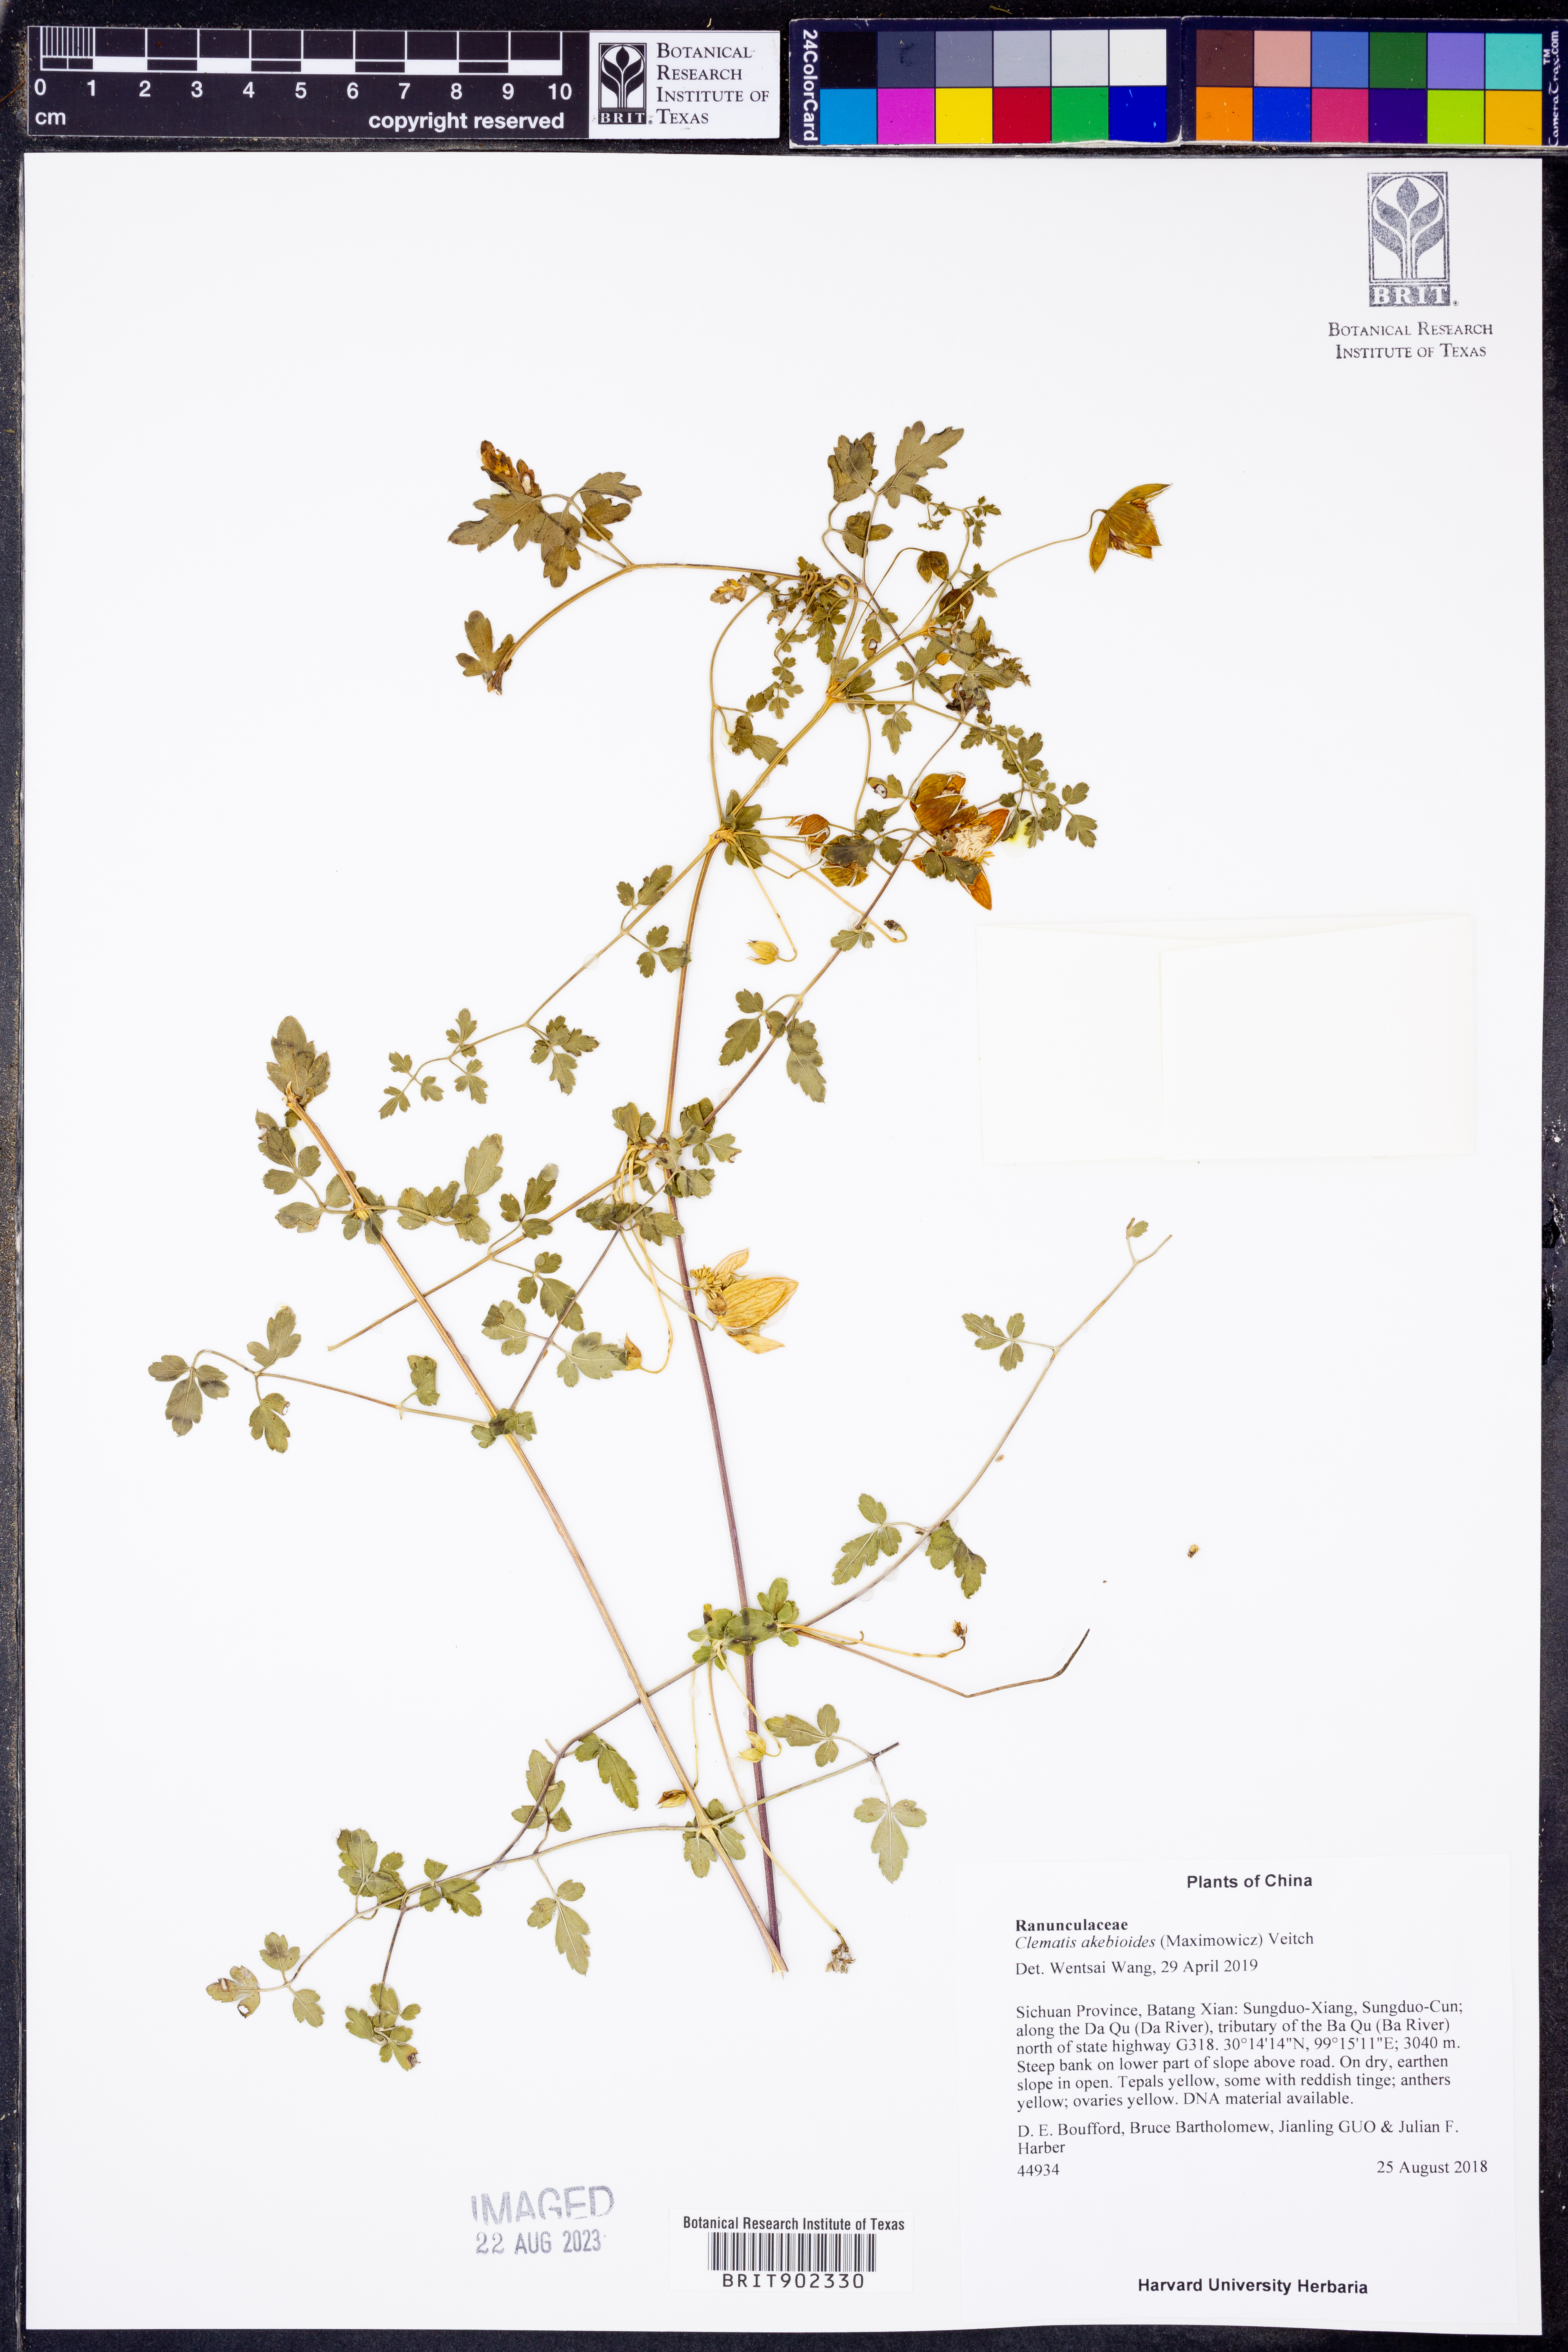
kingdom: Plantae
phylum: Tracheophyta
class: Magnoliopsida
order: Ranunculales
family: Ranunculaceae
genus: Clematis
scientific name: Clematis akebioides
